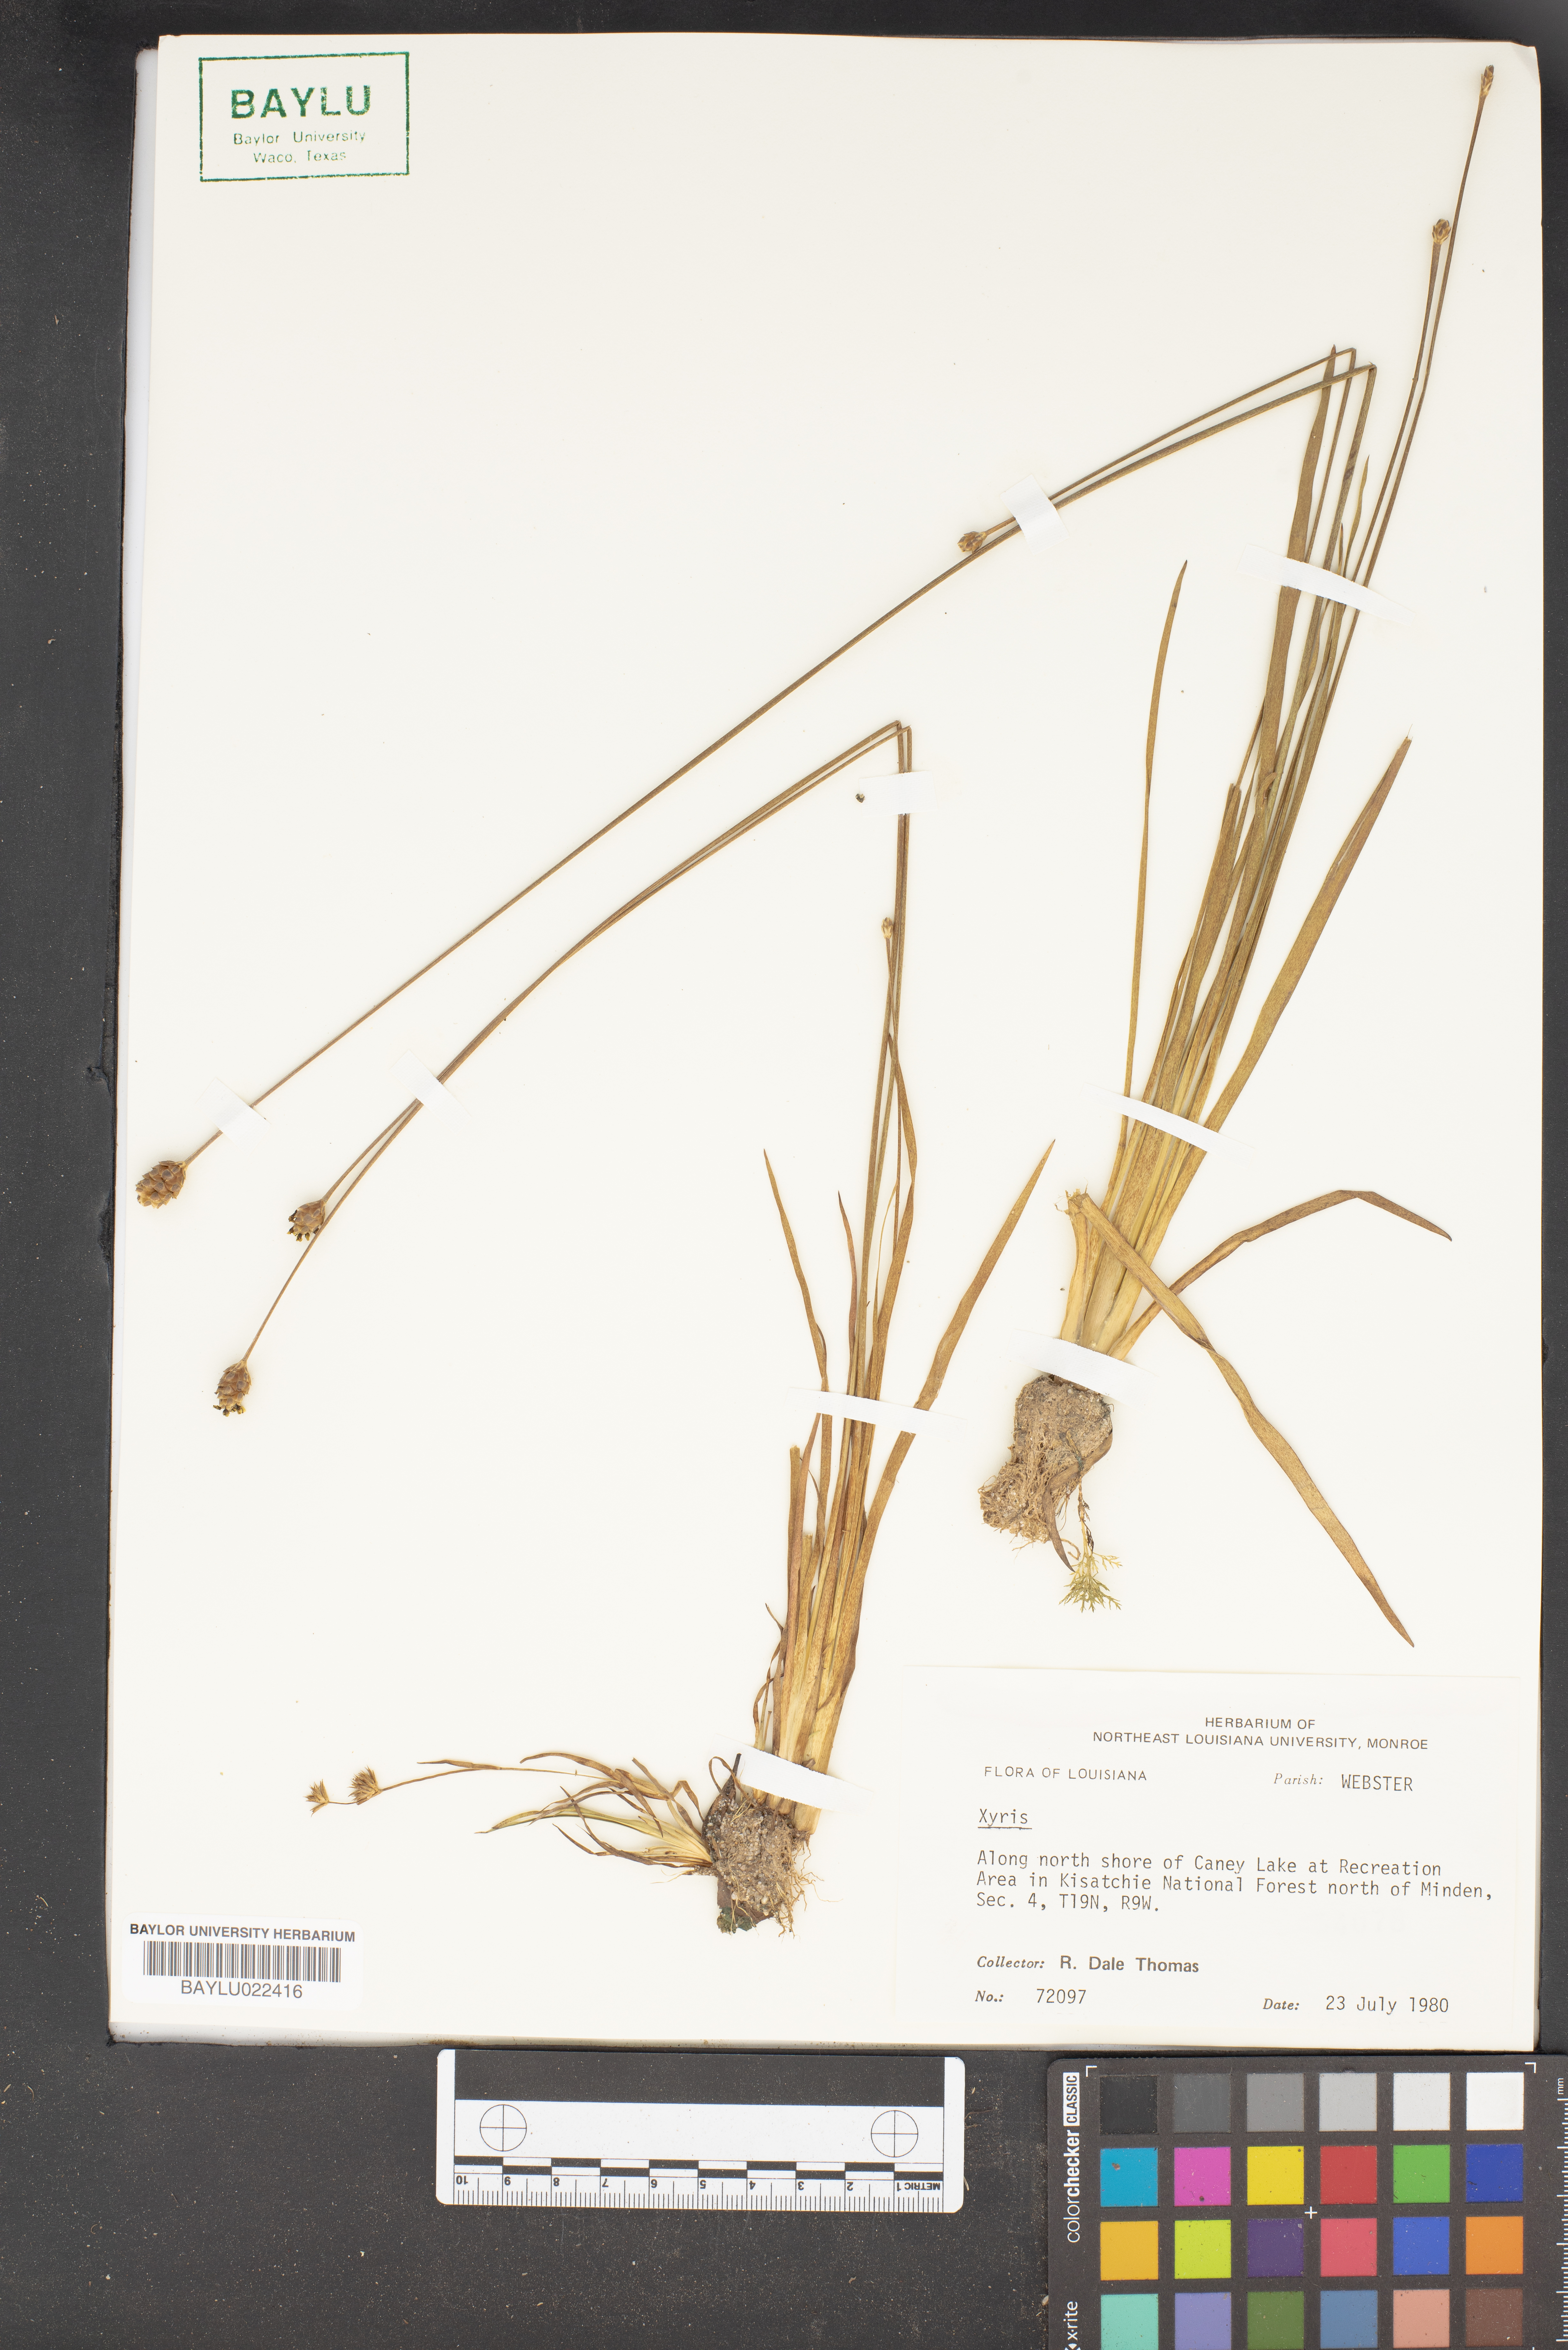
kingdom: Plantae
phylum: Tracheophyta
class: Liliopsida
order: Poales
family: Xyridaceae
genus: Xyris
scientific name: Xyris
